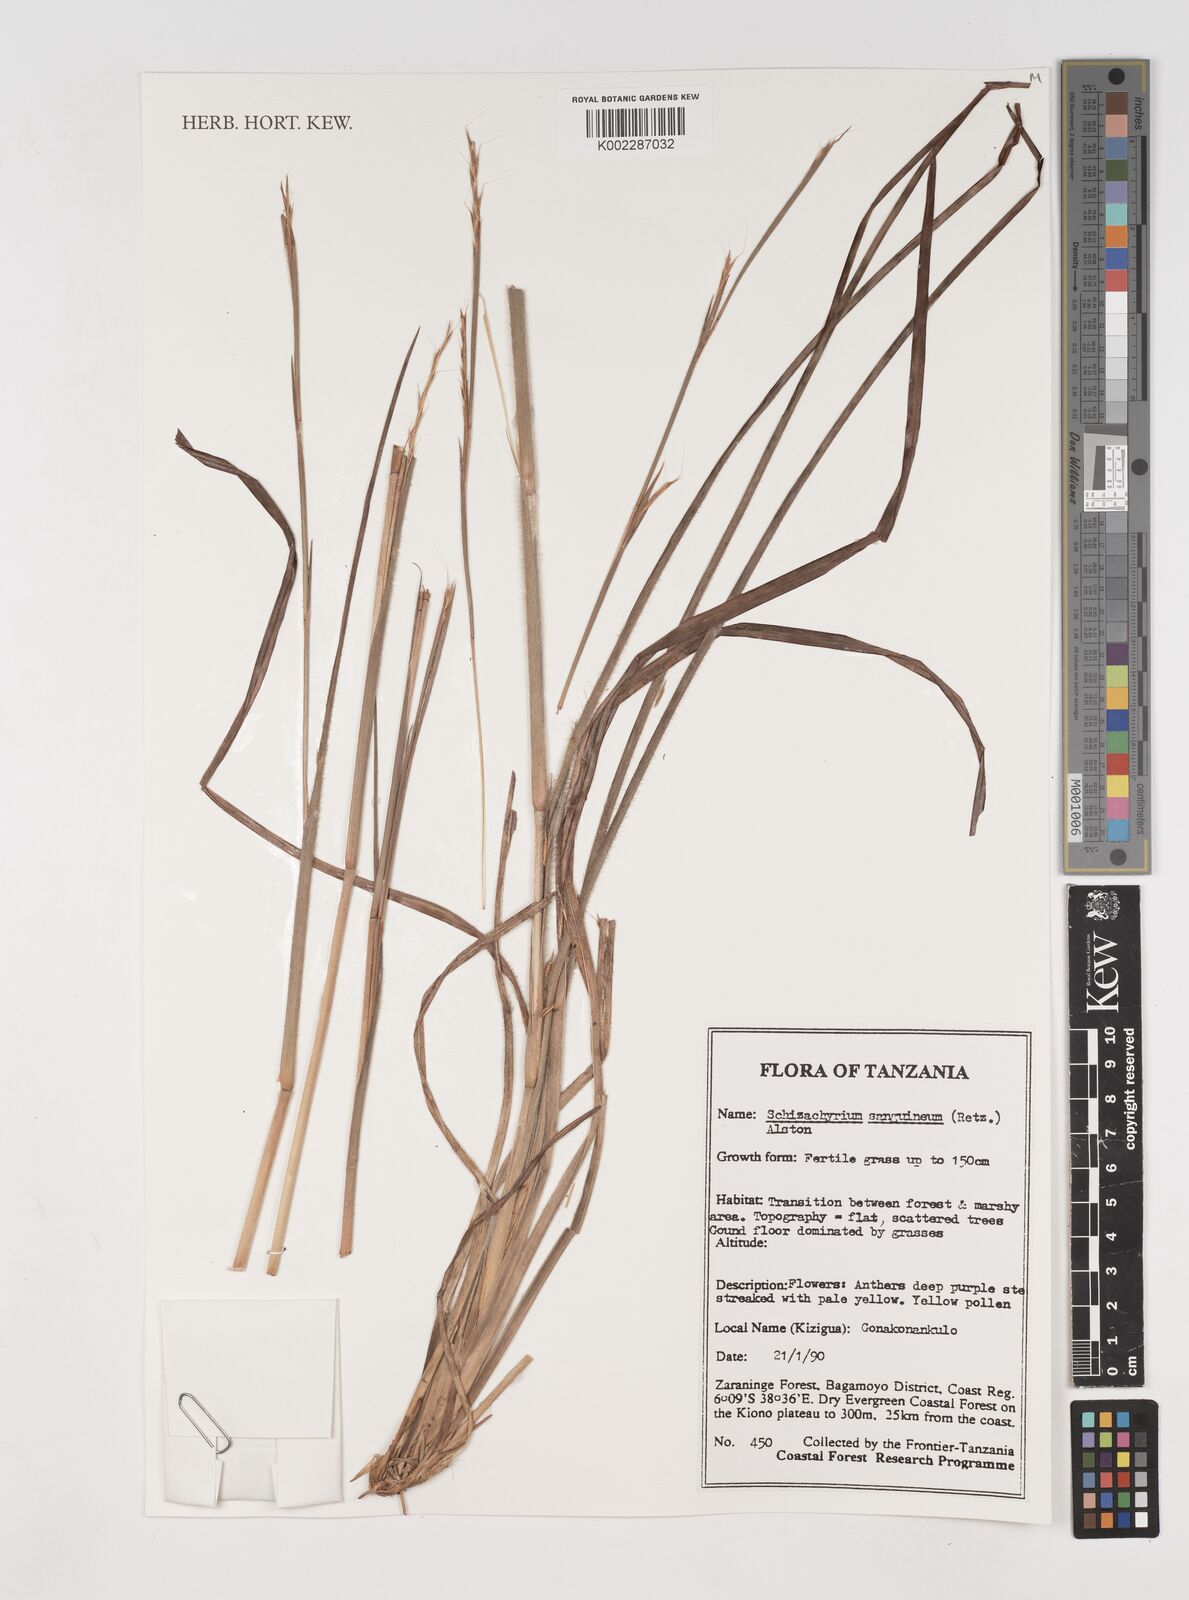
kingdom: Plantae
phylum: Tracheophyta
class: Liliopsida
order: Poales
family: Poaceae
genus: Schizachyrium
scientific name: Schizachyrium sanguineum
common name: Crimson bluestem
